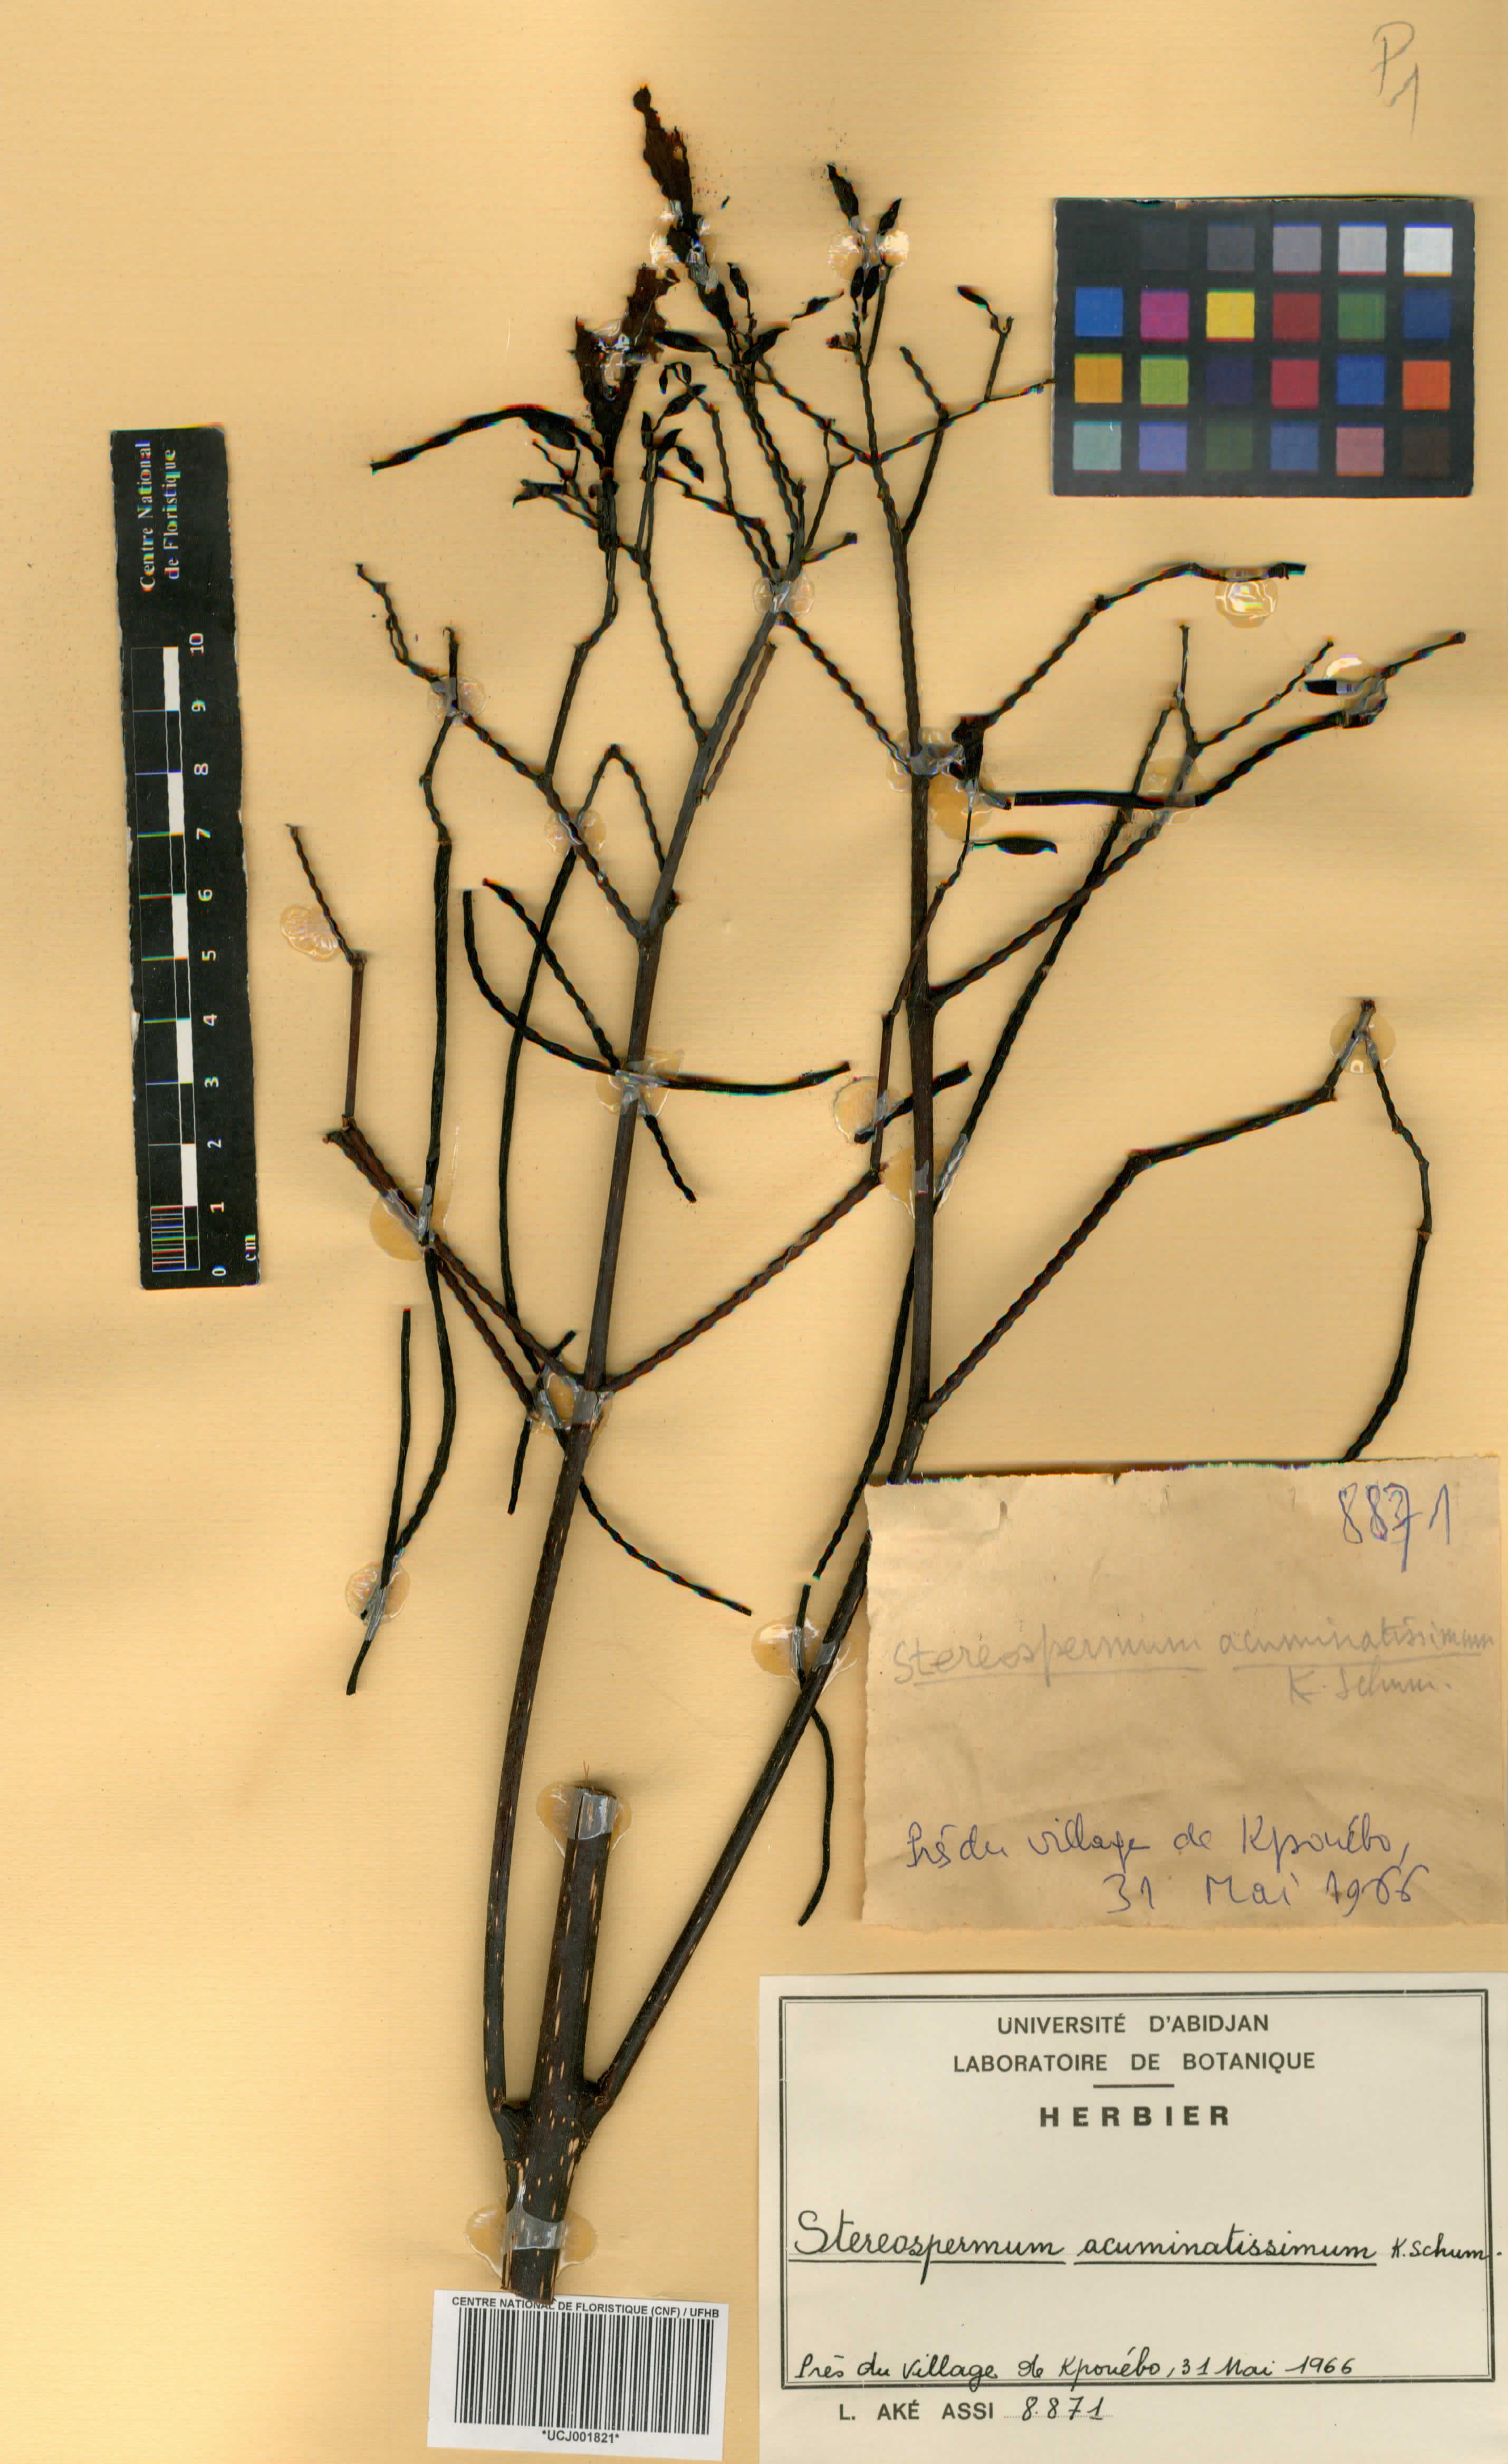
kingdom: Plantae
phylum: Tracheophyta
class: Magnoliopsida
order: Lamiales
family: Bignoniaceae
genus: Stereospermum
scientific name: Stereospermum kunthianum
